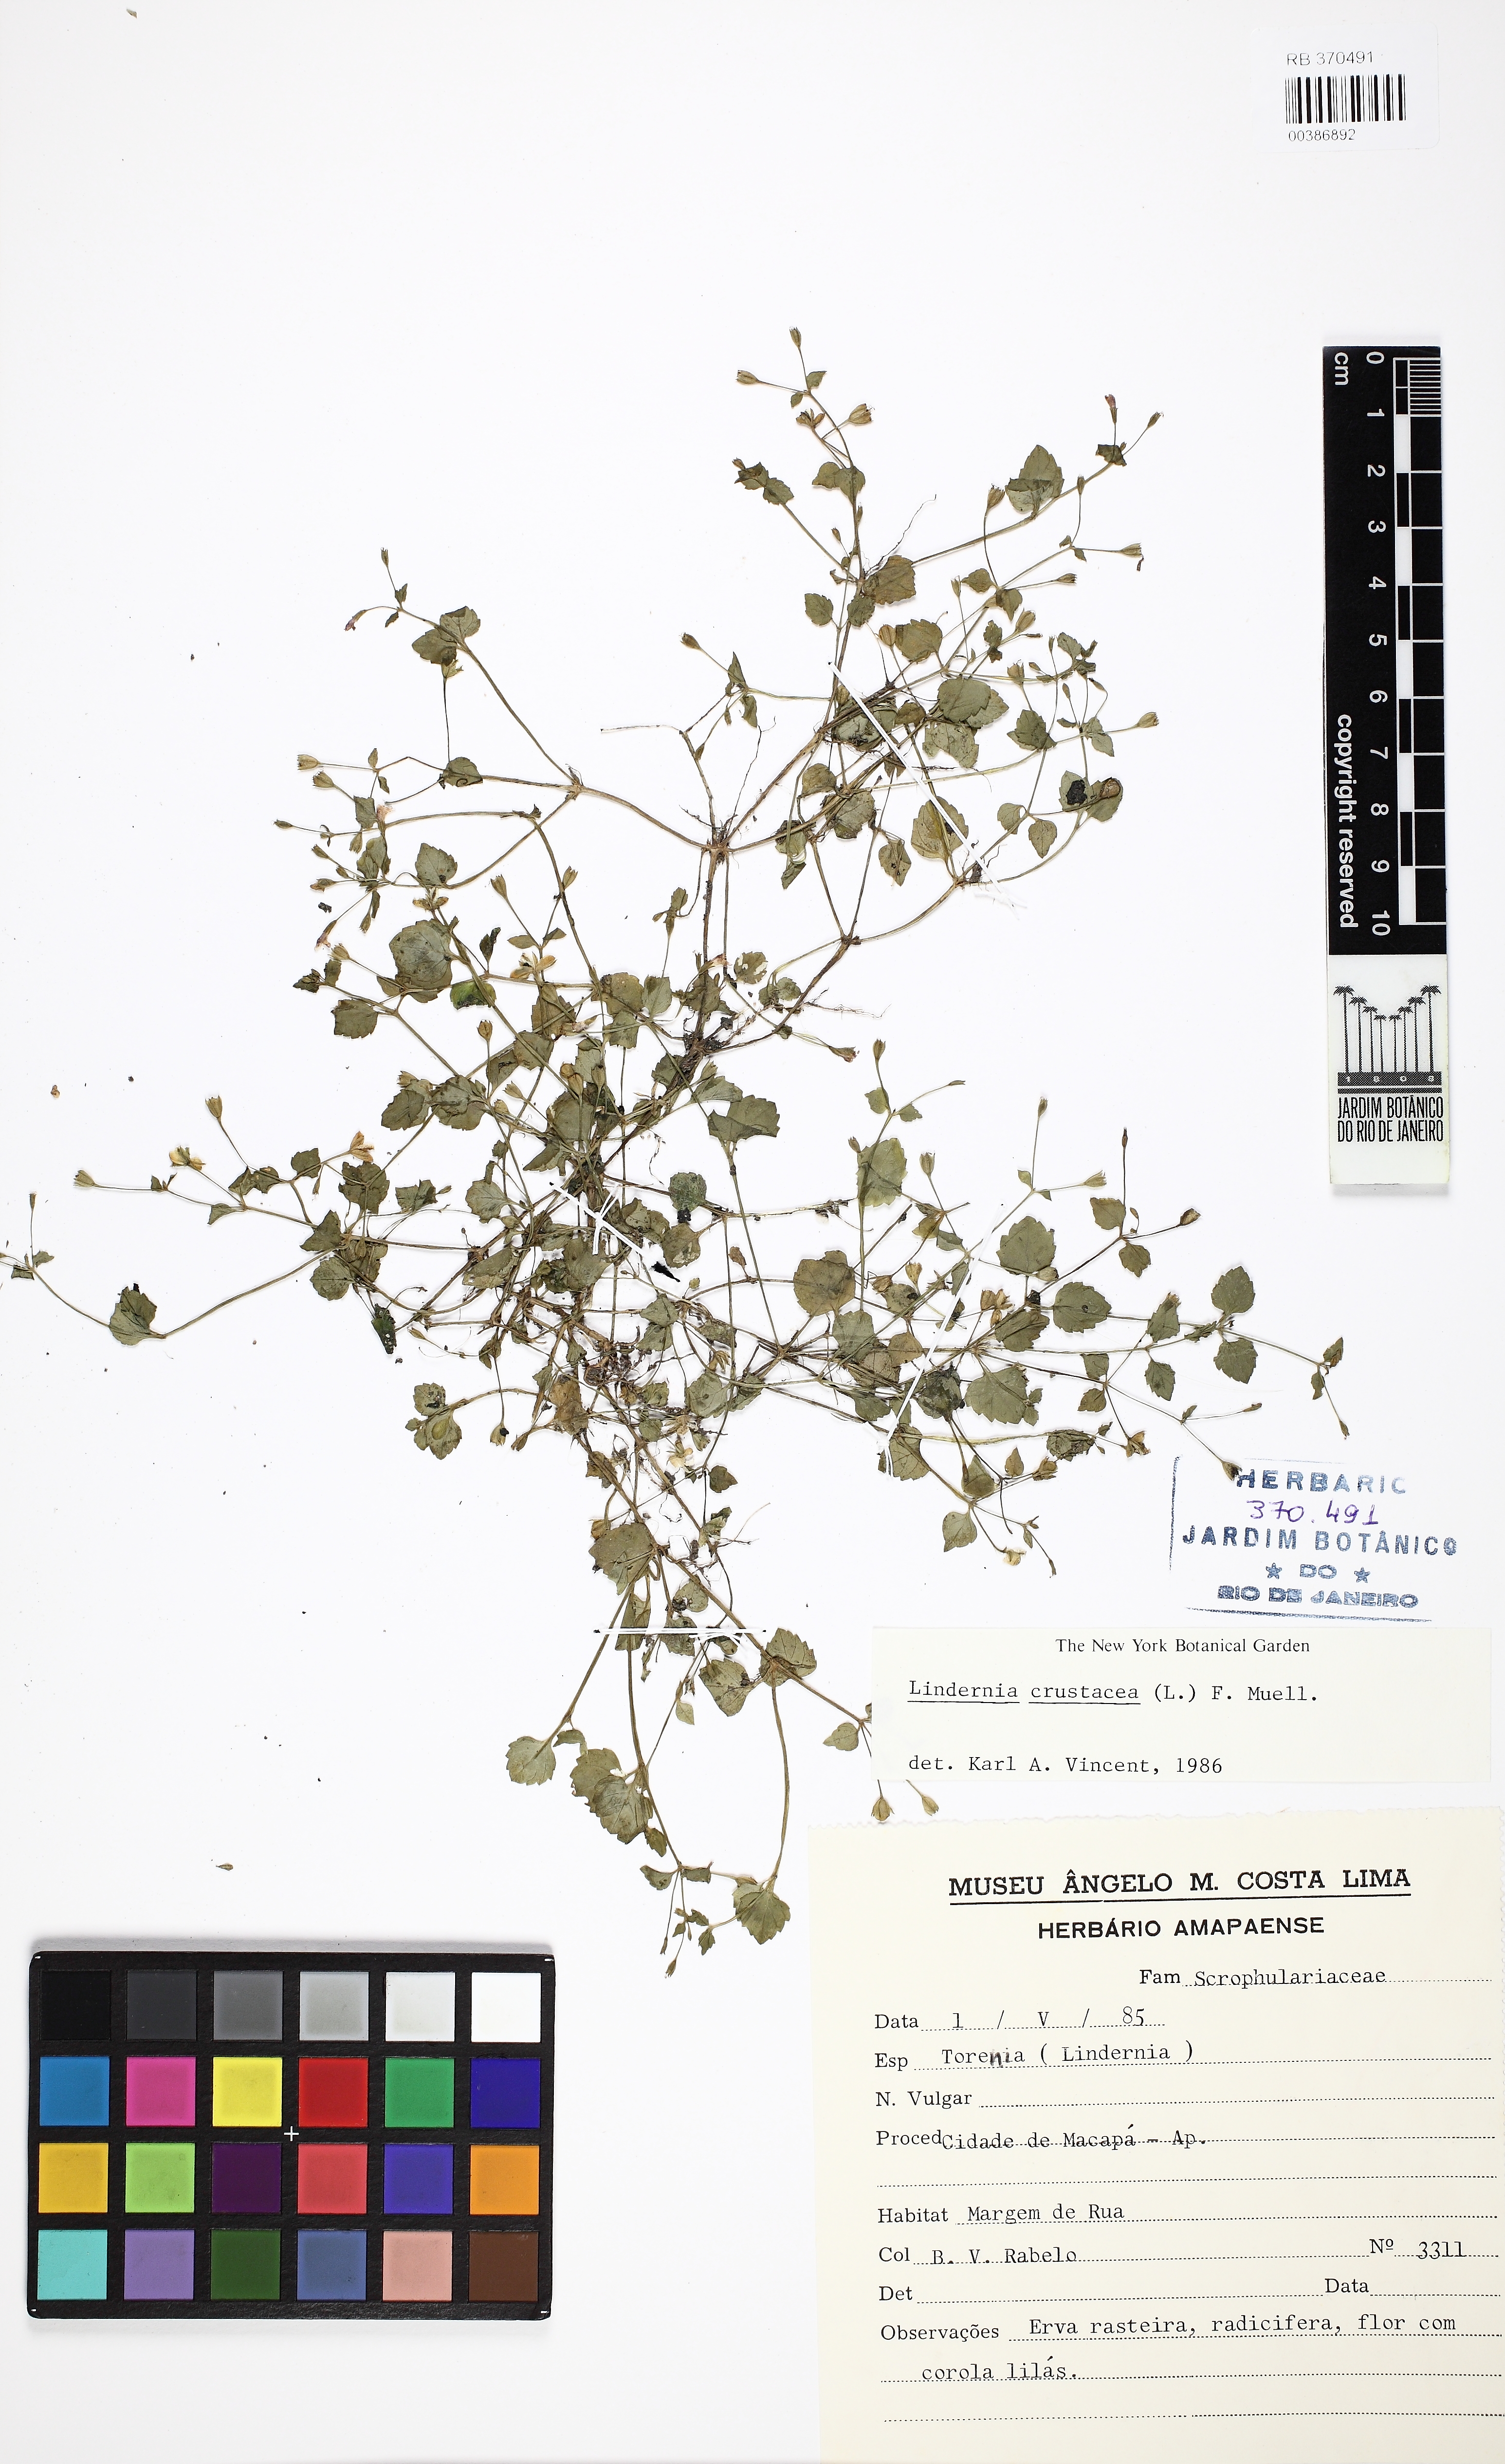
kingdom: Plantae
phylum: Tracheophyta
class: Magnoliopsida
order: Lamiales
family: Linderniaceae
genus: Torenia
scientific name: Torenia crustacea
